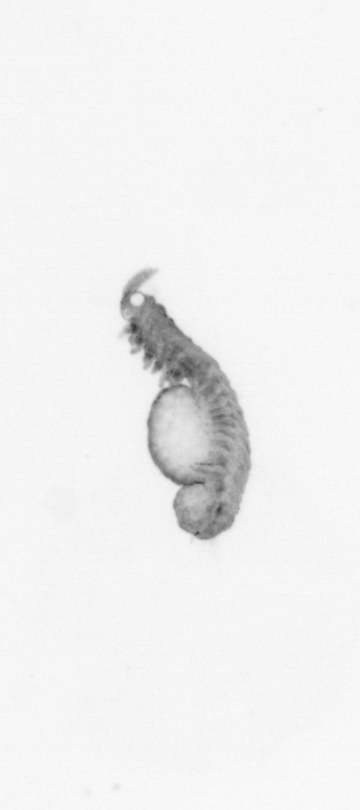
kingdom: Animalia
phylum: Annelida
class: Polychaeta
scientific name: Polychaeta
